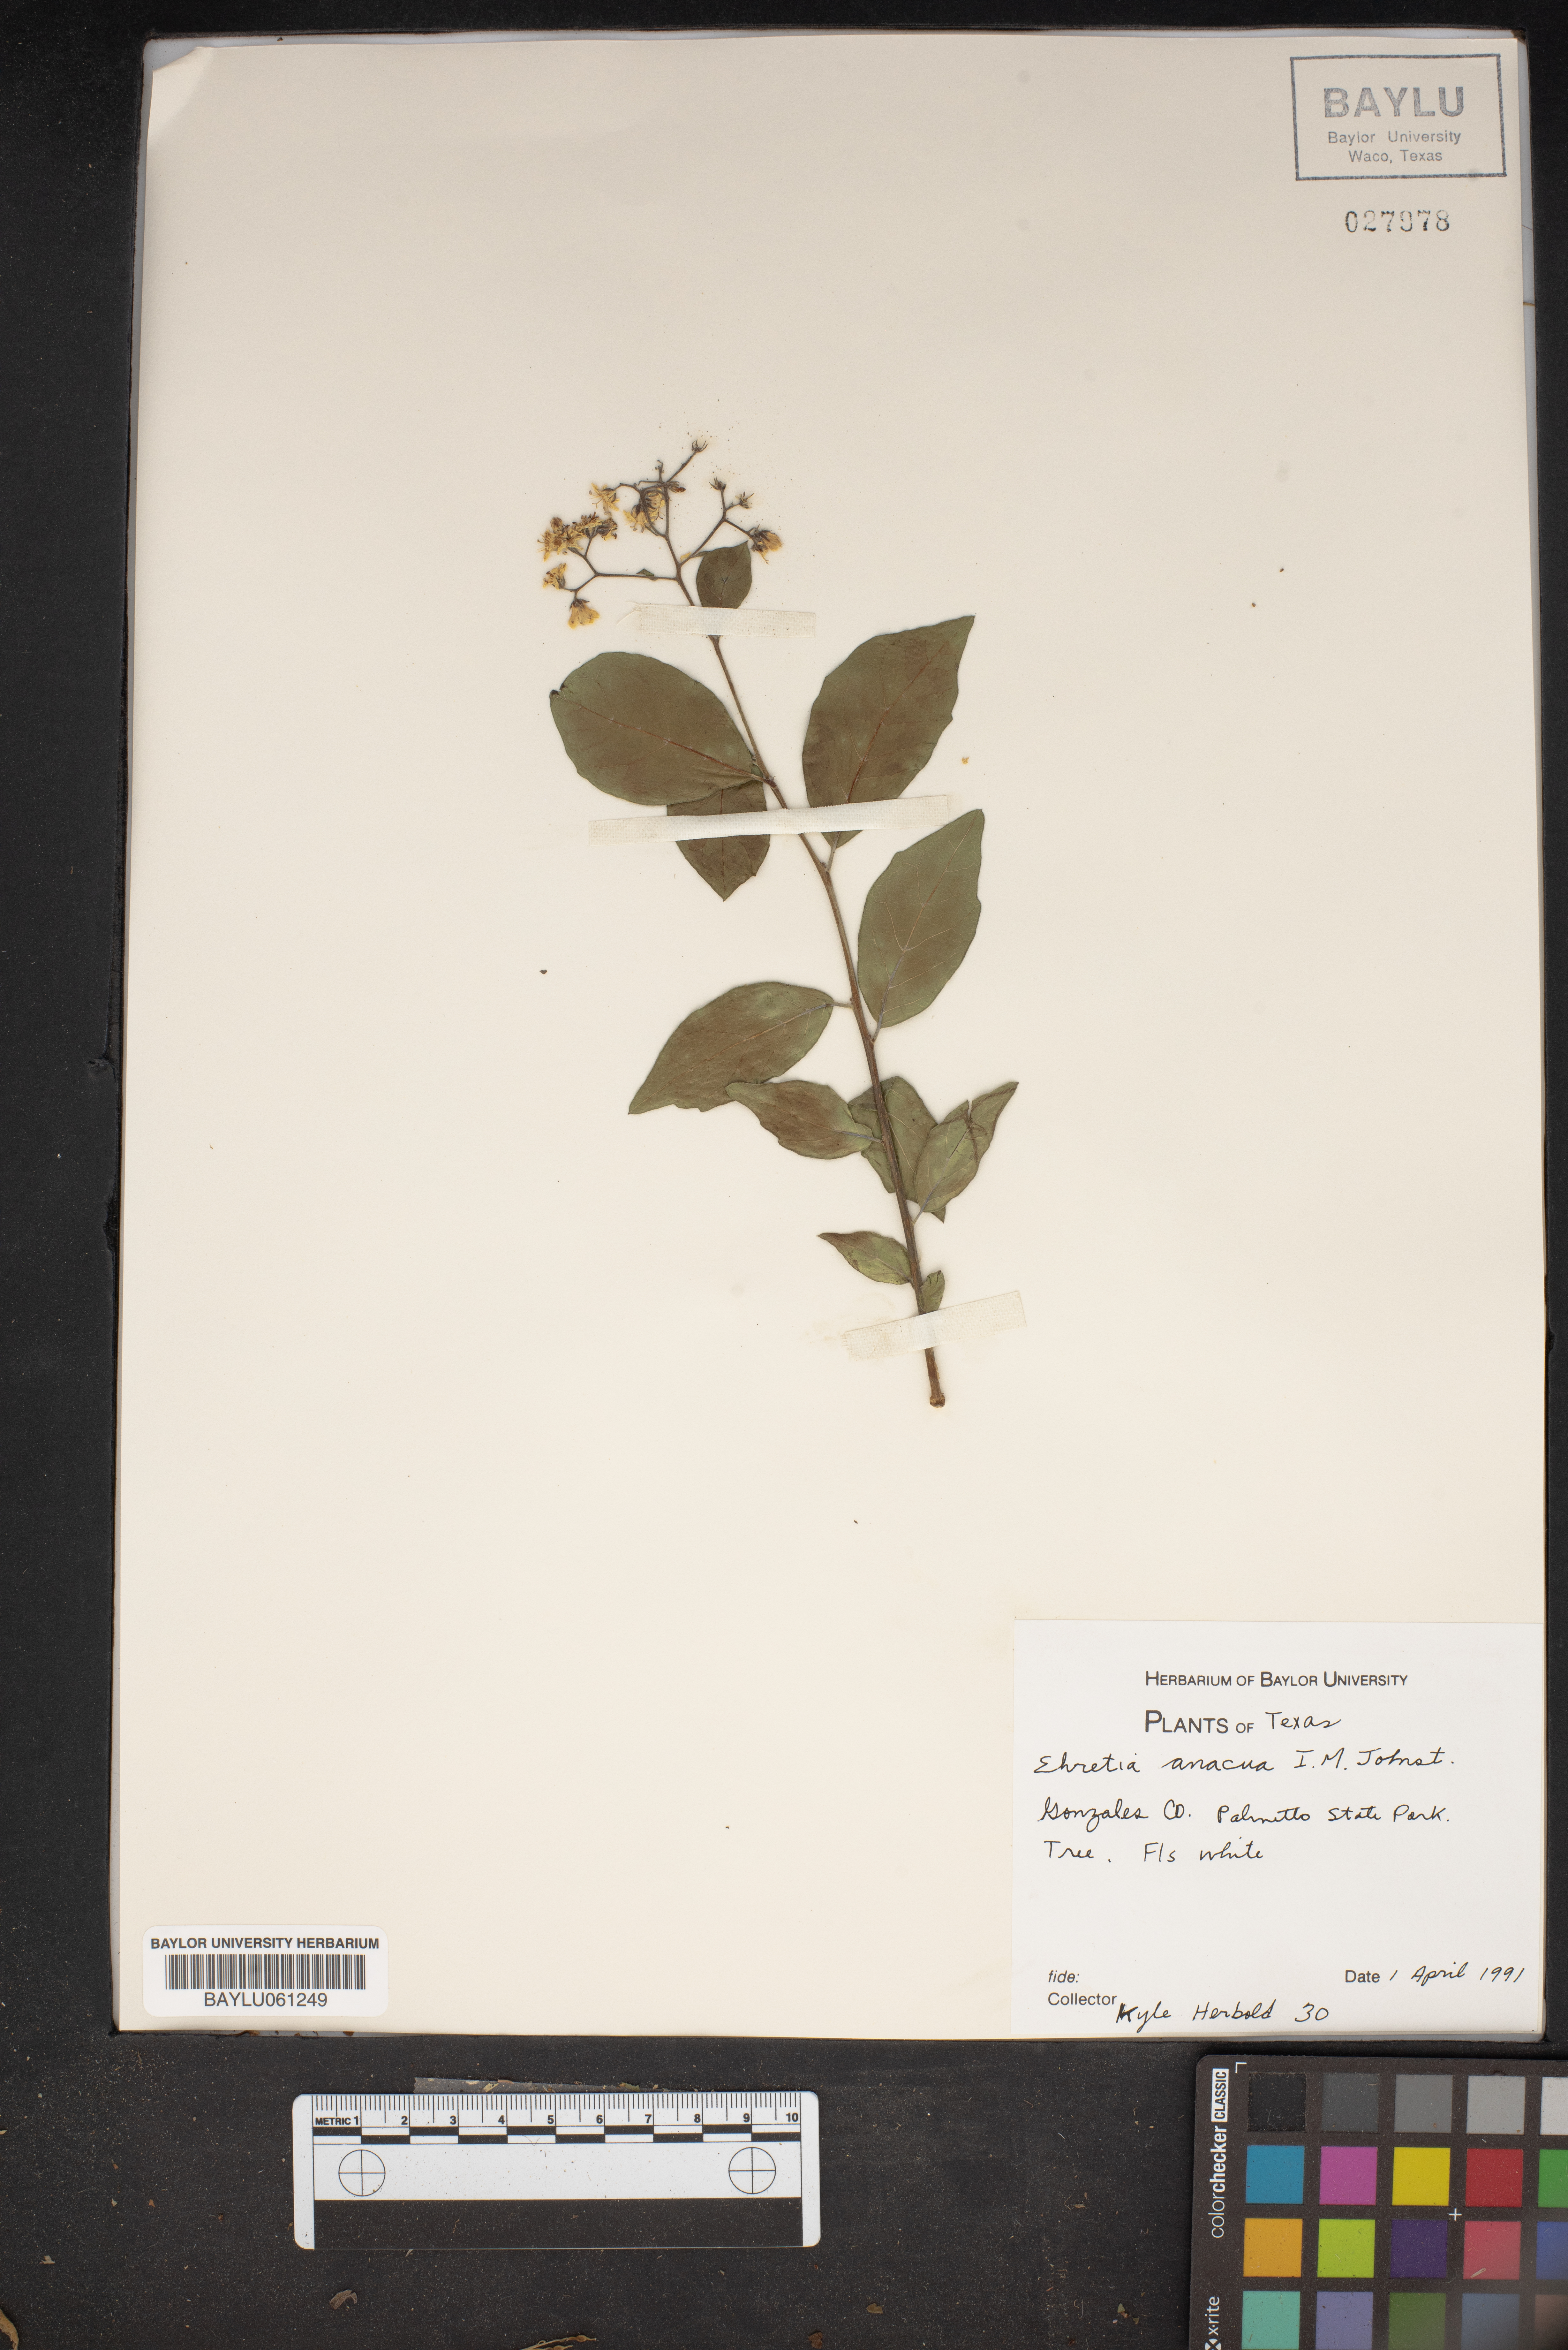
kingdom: Plantae
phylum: Tracheophyta
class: Magnoliopsida
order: Boraginales
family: Ehretiaceae
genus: Ehretia
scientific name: Ehretia anacua
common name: Sugarberry
